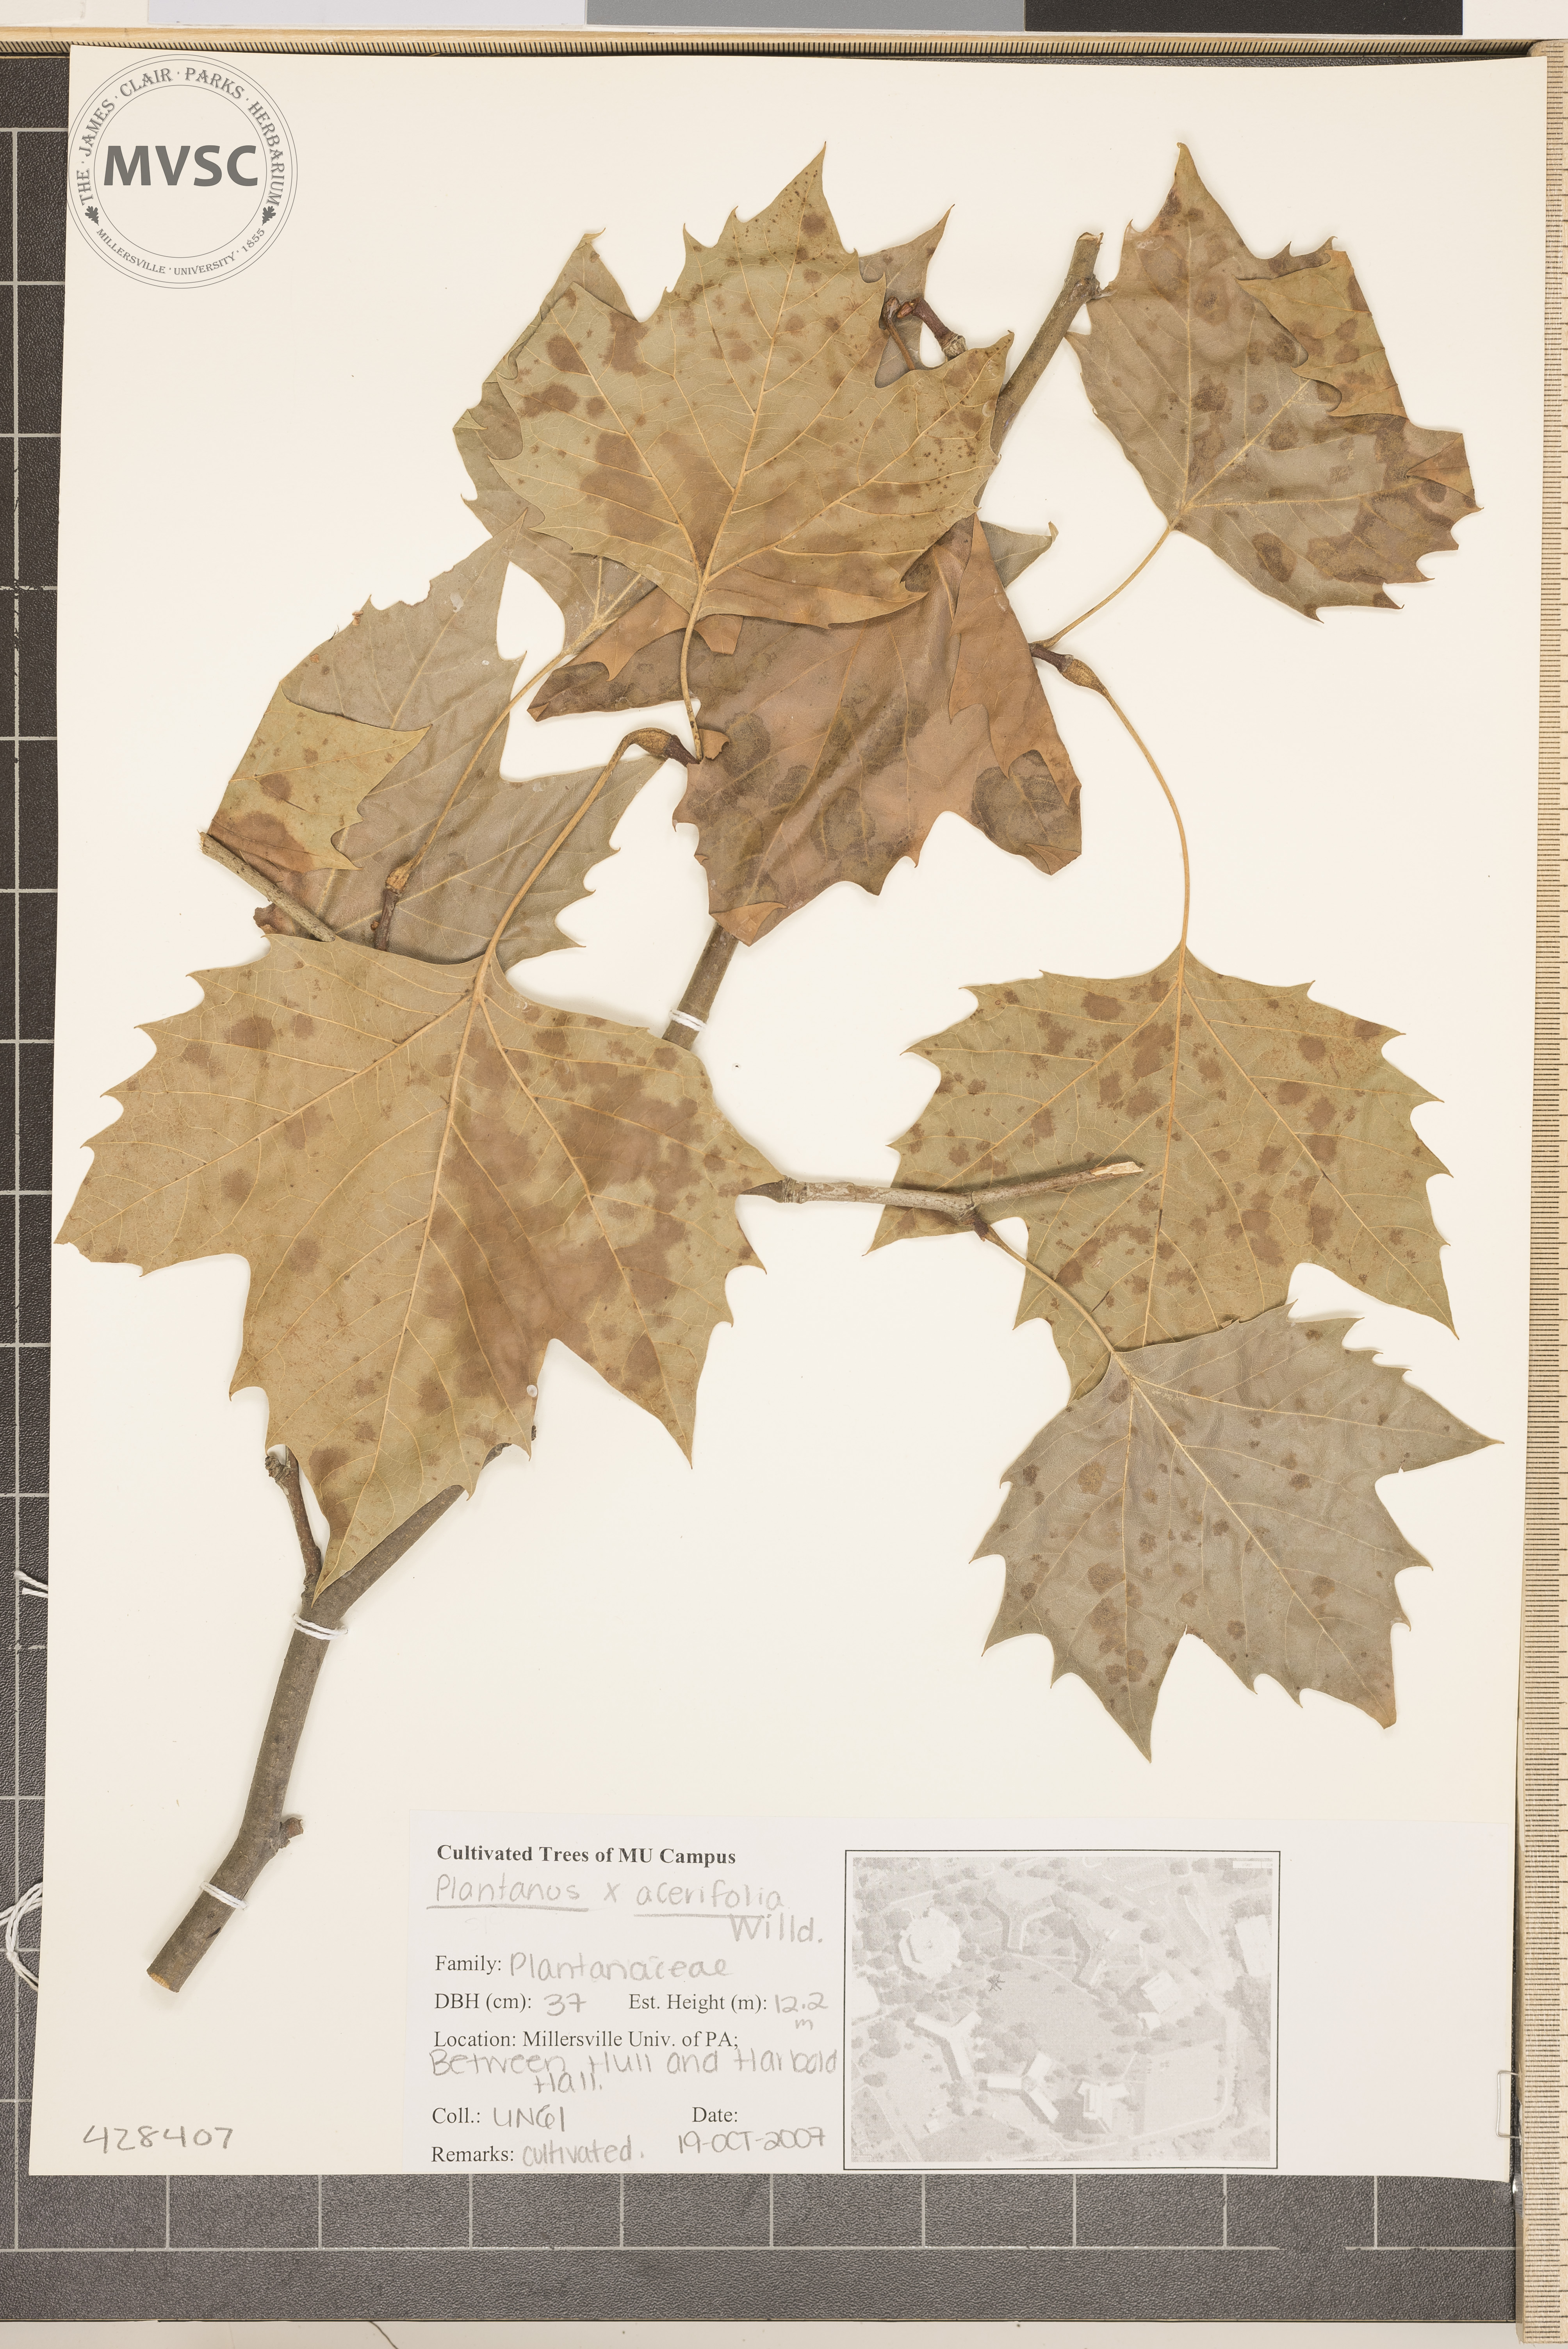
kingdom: Plantae
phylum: Tracheophyta
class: Magnoliopsida
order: Proteales
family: Platanaceae
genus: Platanus
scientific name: Platanus hispanica
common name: London planetree
